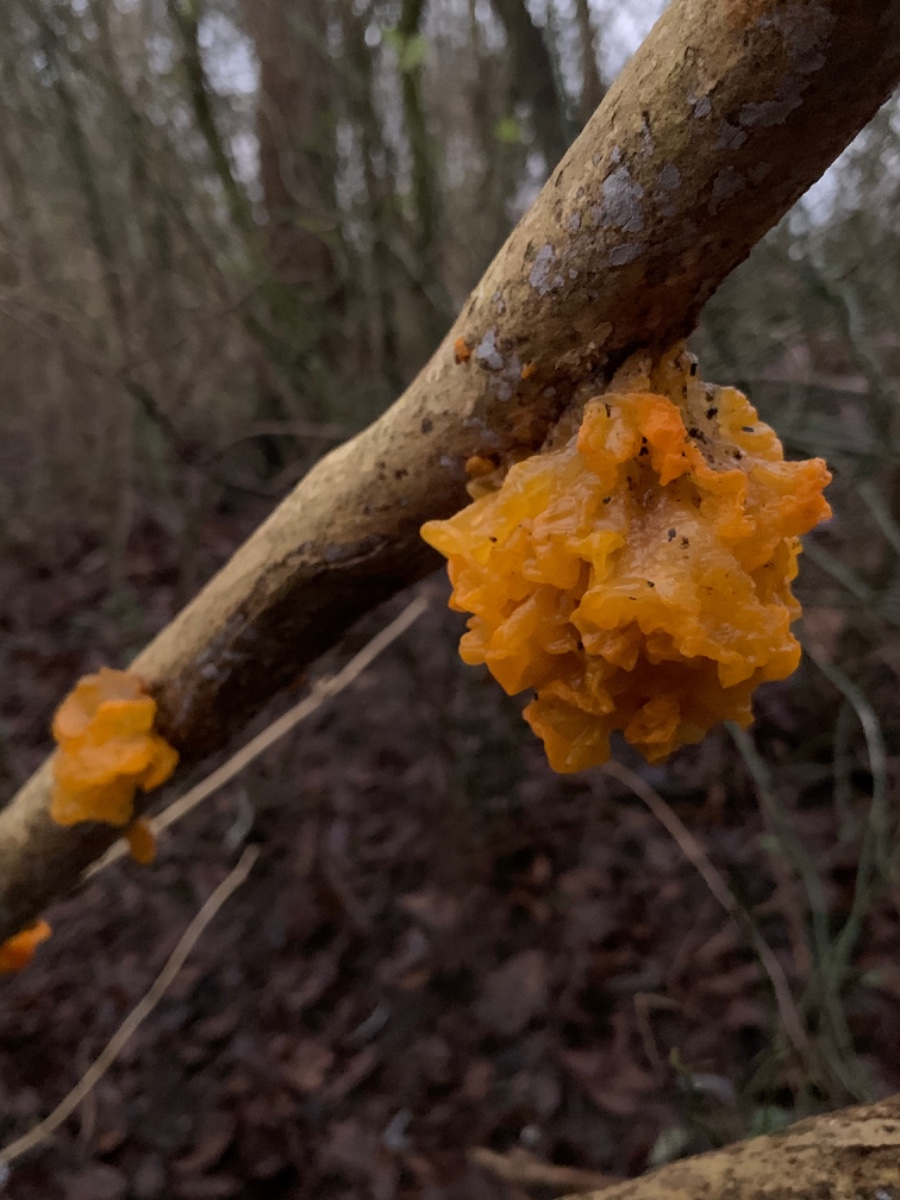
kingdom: Fungi
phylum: Basidiomycota
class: Tremellomycetes
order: Tremellales
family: Tremellaceae
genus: Tremella
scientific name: Tremella mesenterica
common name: gul bævresvamp
